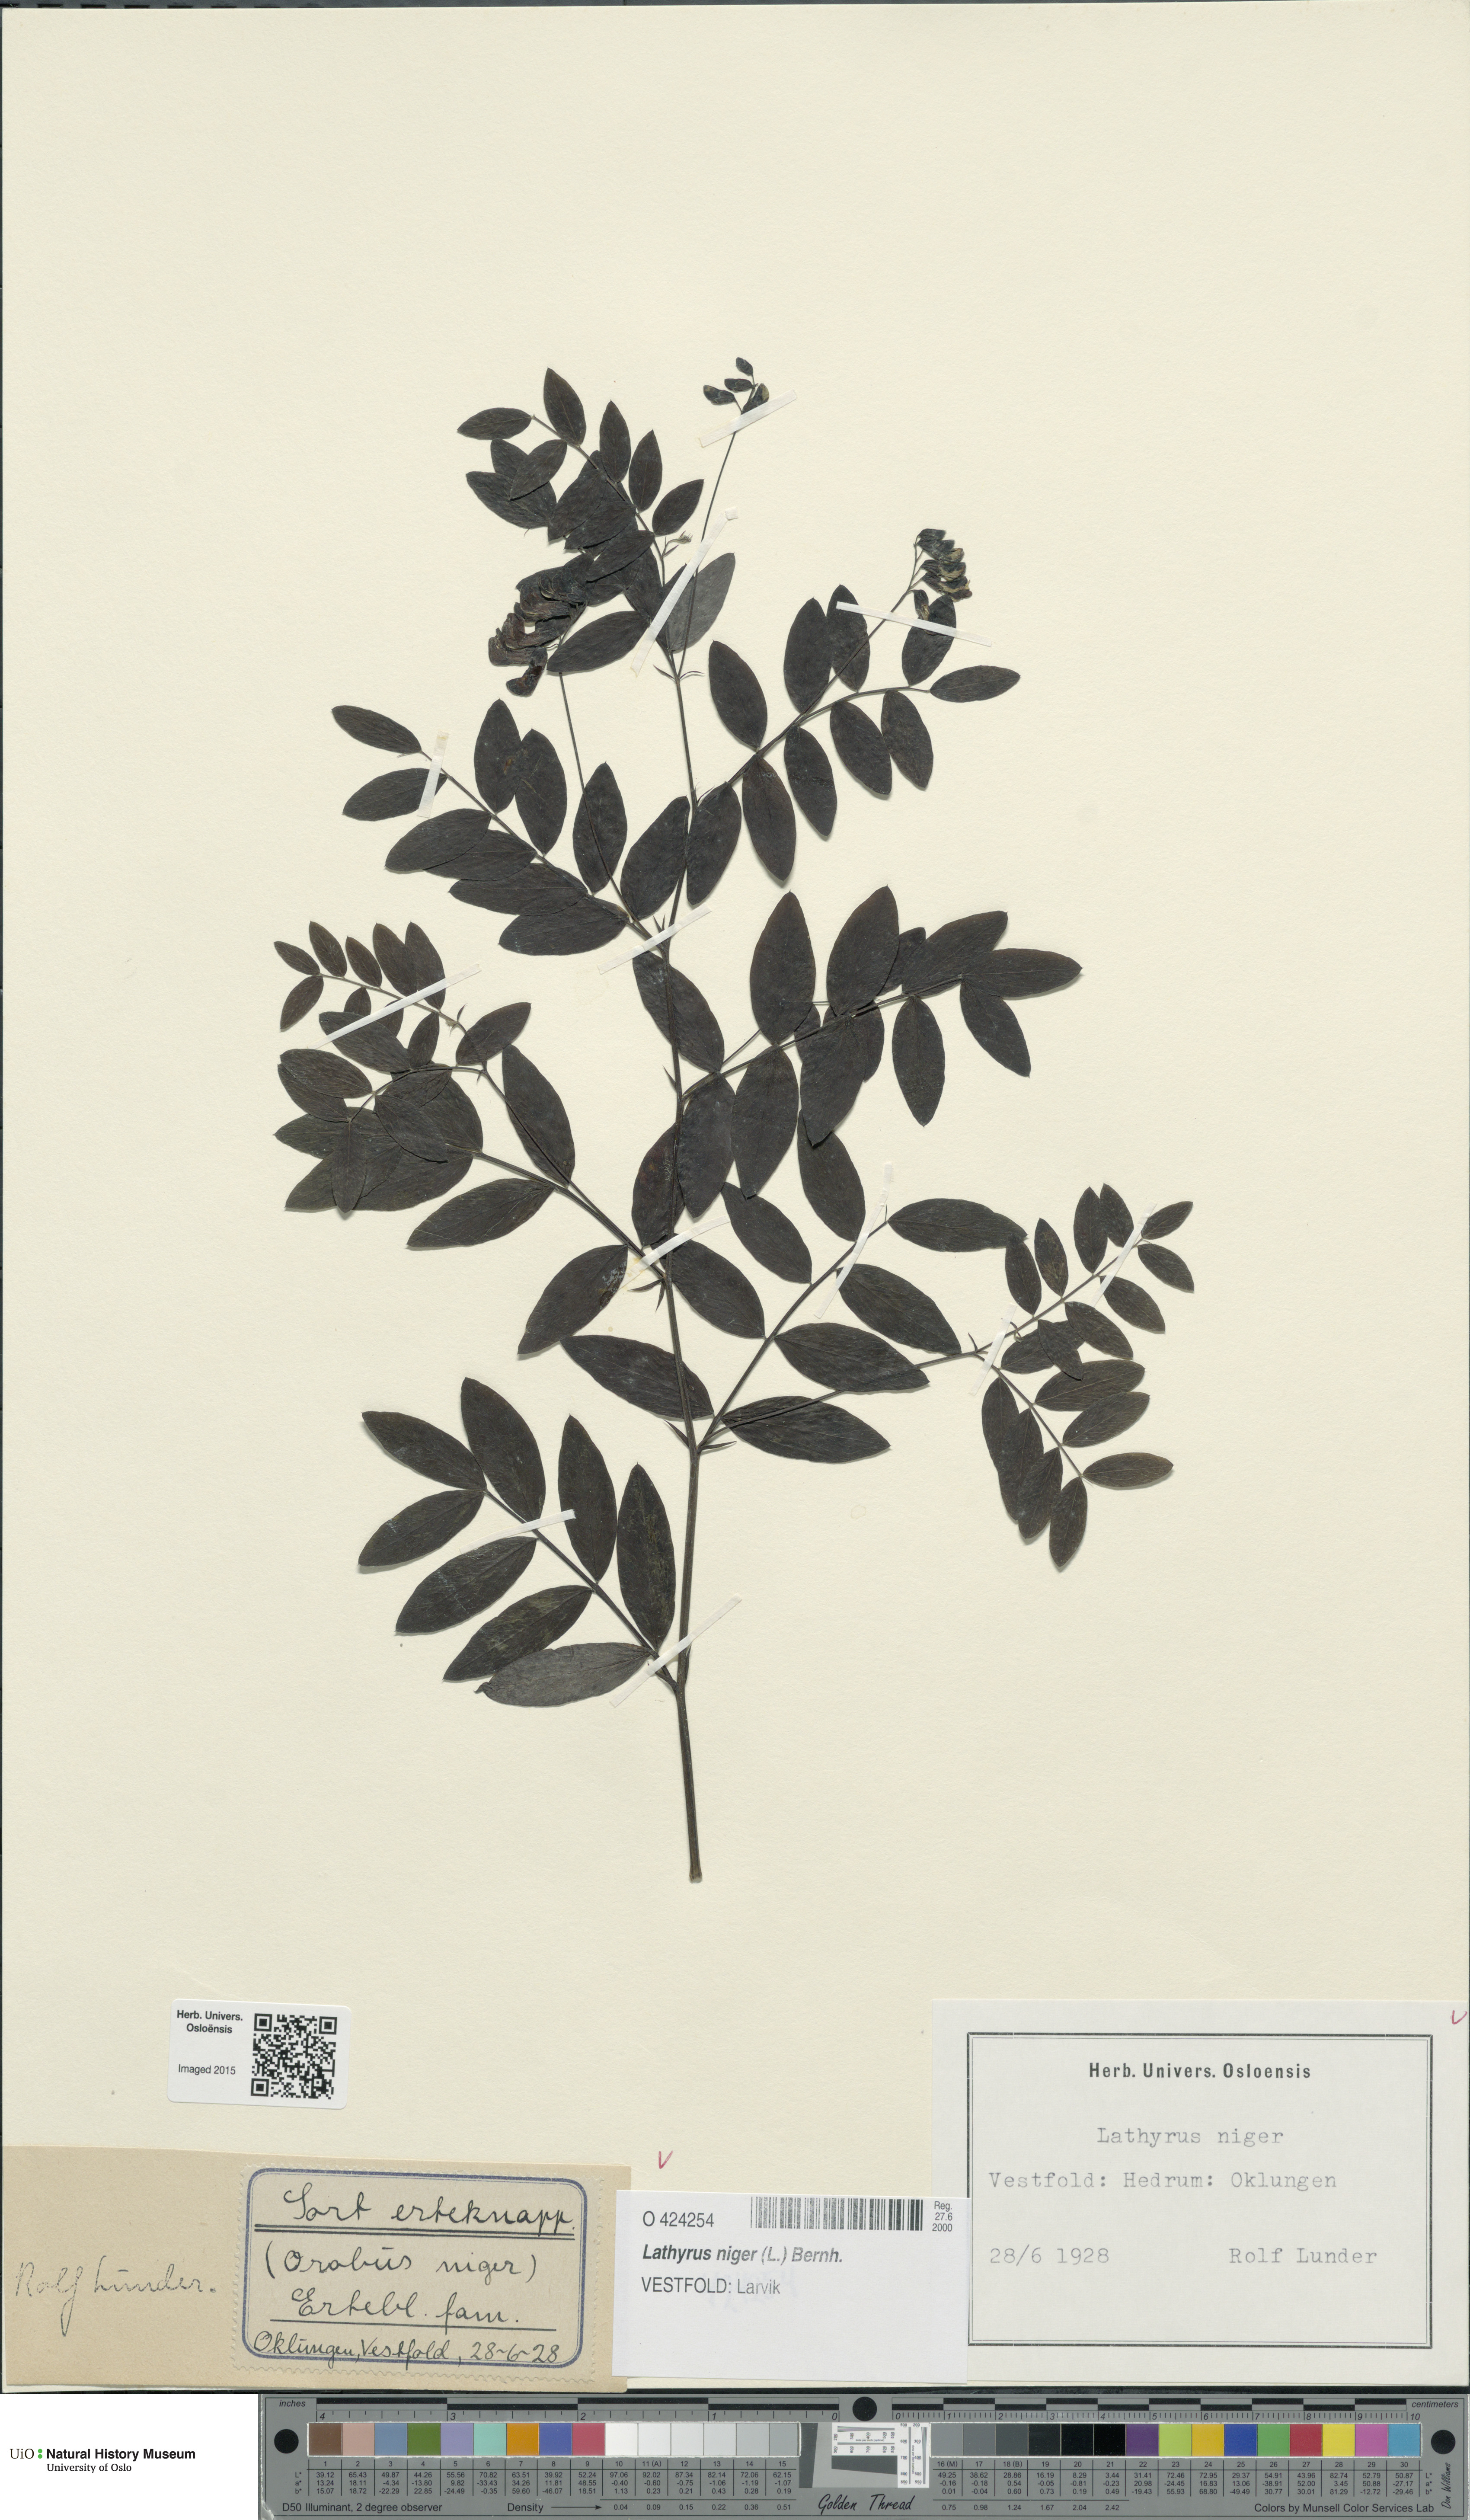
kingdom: Plantae
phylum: Tracheophyta
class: Magnoliopsida
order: Fabales
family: Fabaceae
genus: Lathyrus
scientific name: Lathyrus niger
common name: Black pea
